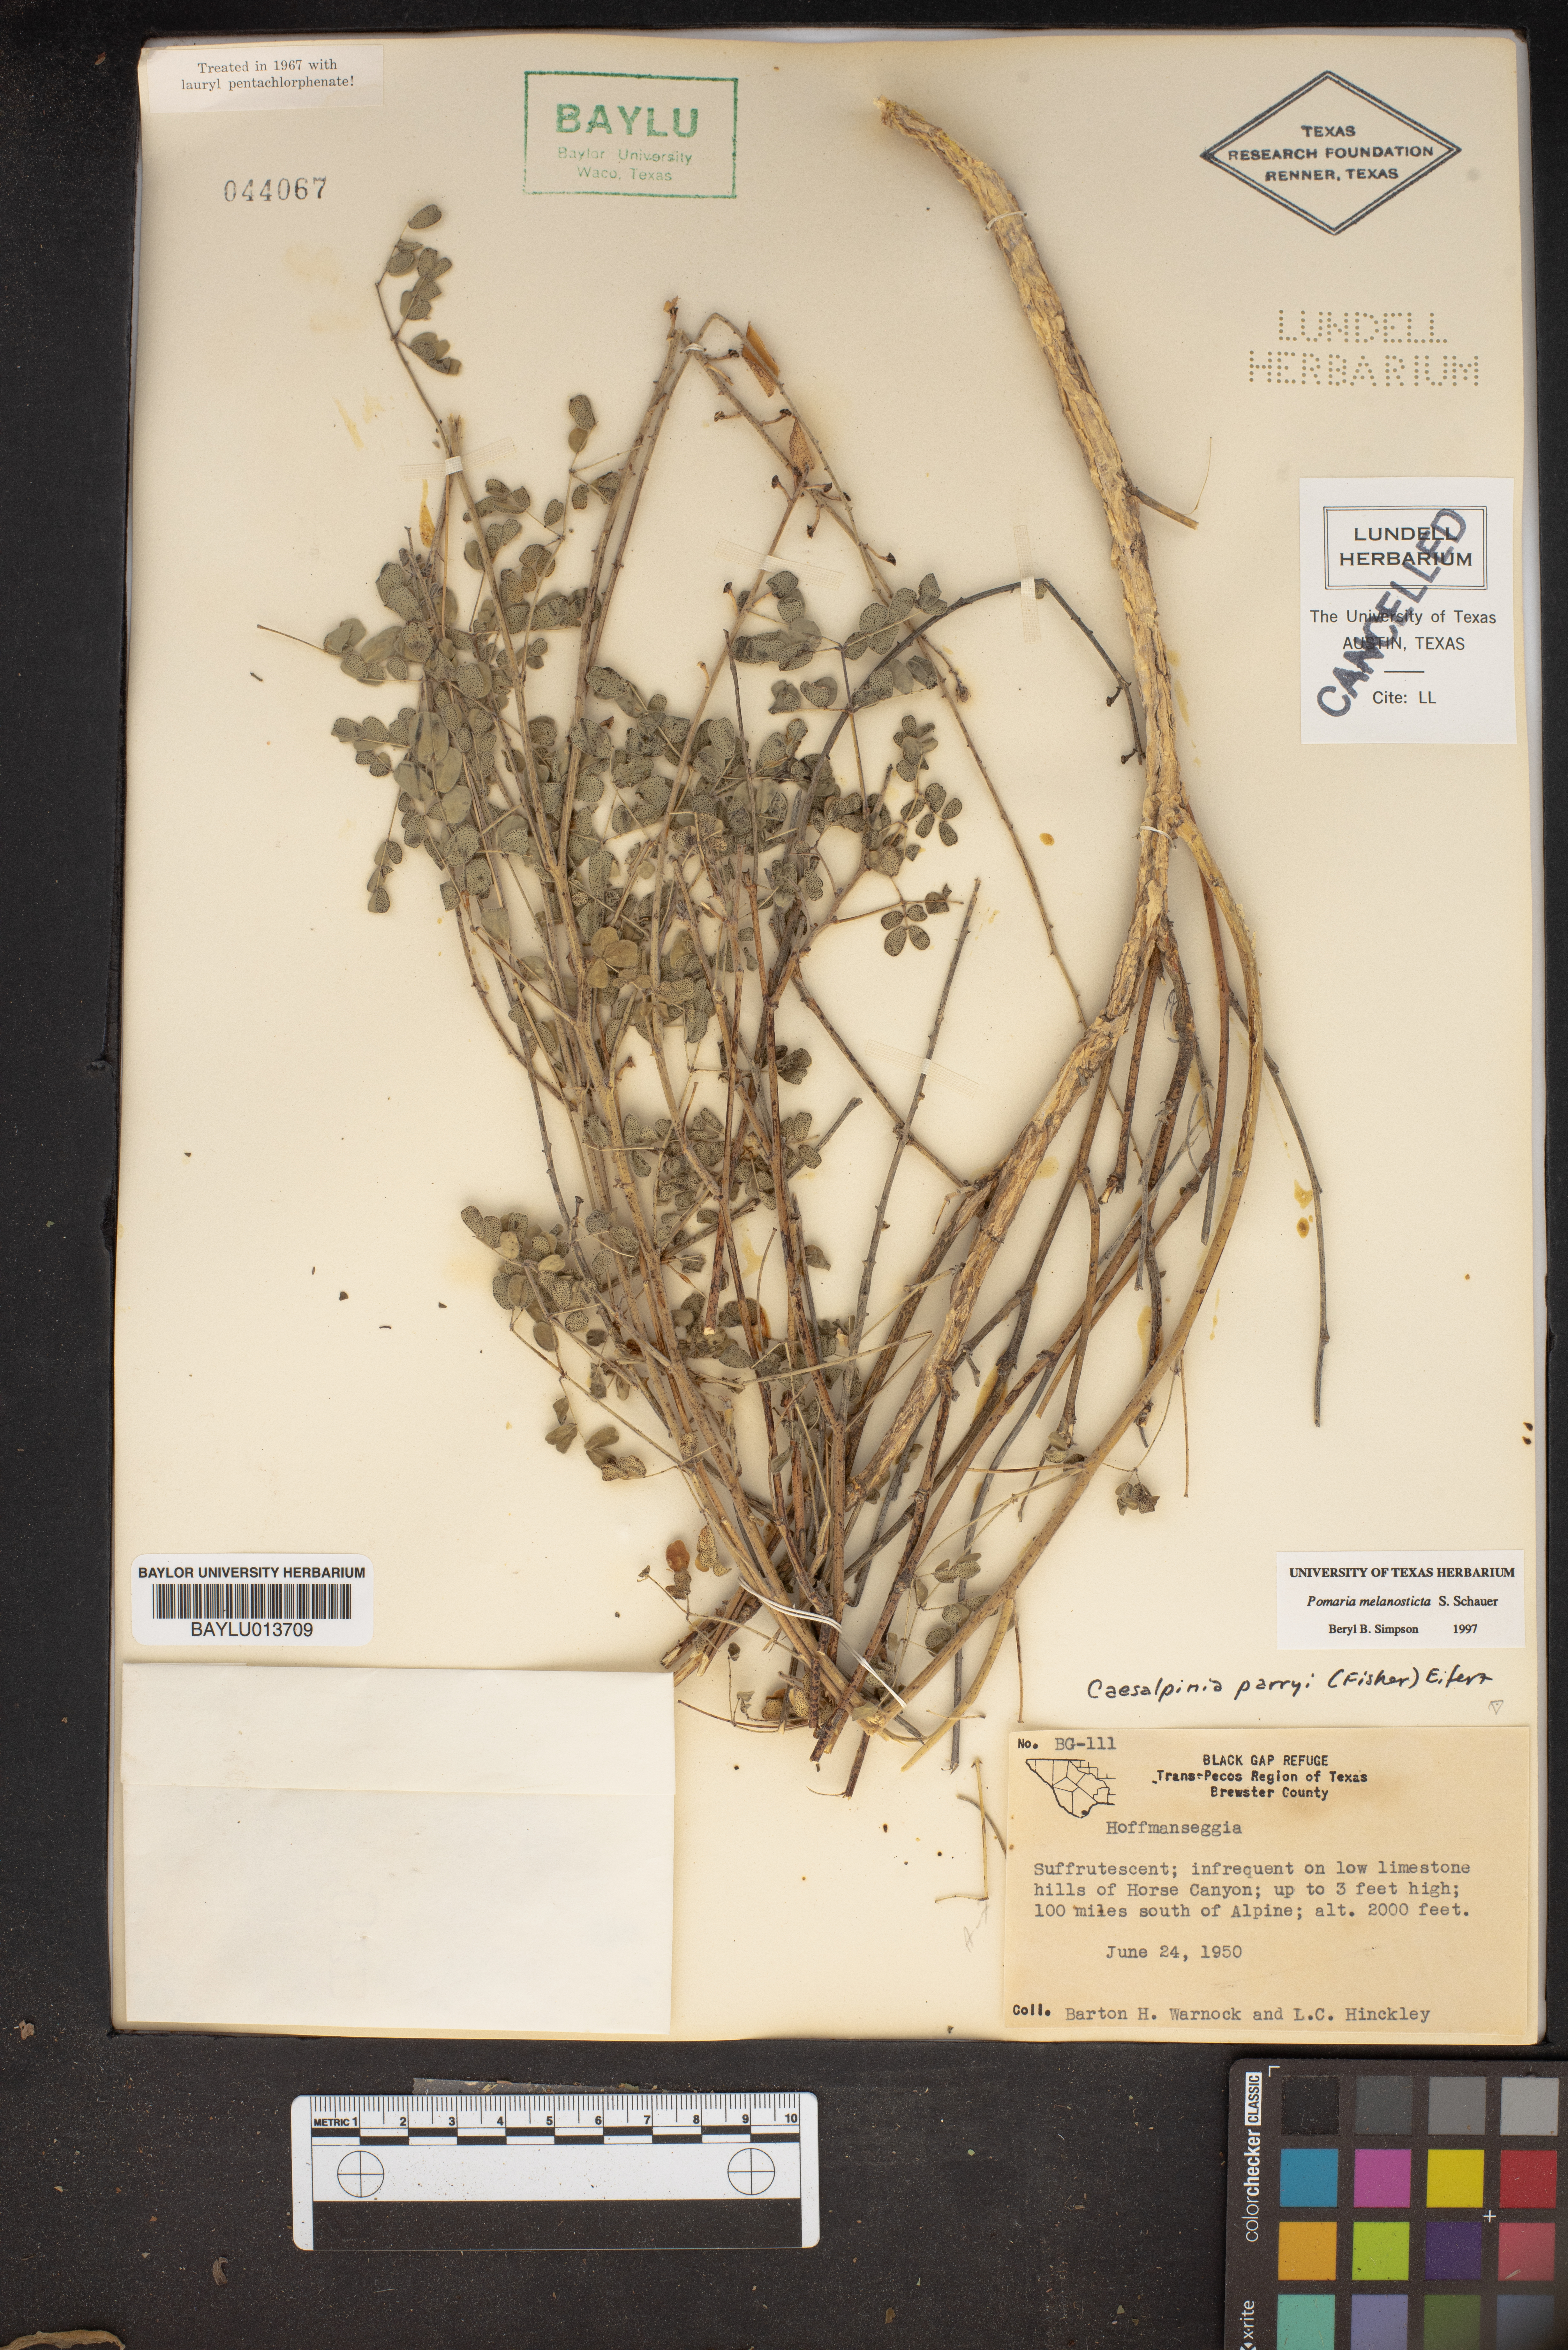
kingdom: Plantae
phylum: Tracheophyta
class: Magnoliopsida
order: Fabales
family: Fabaceae
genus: Pomaria
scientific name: Pomaria melanosticta
